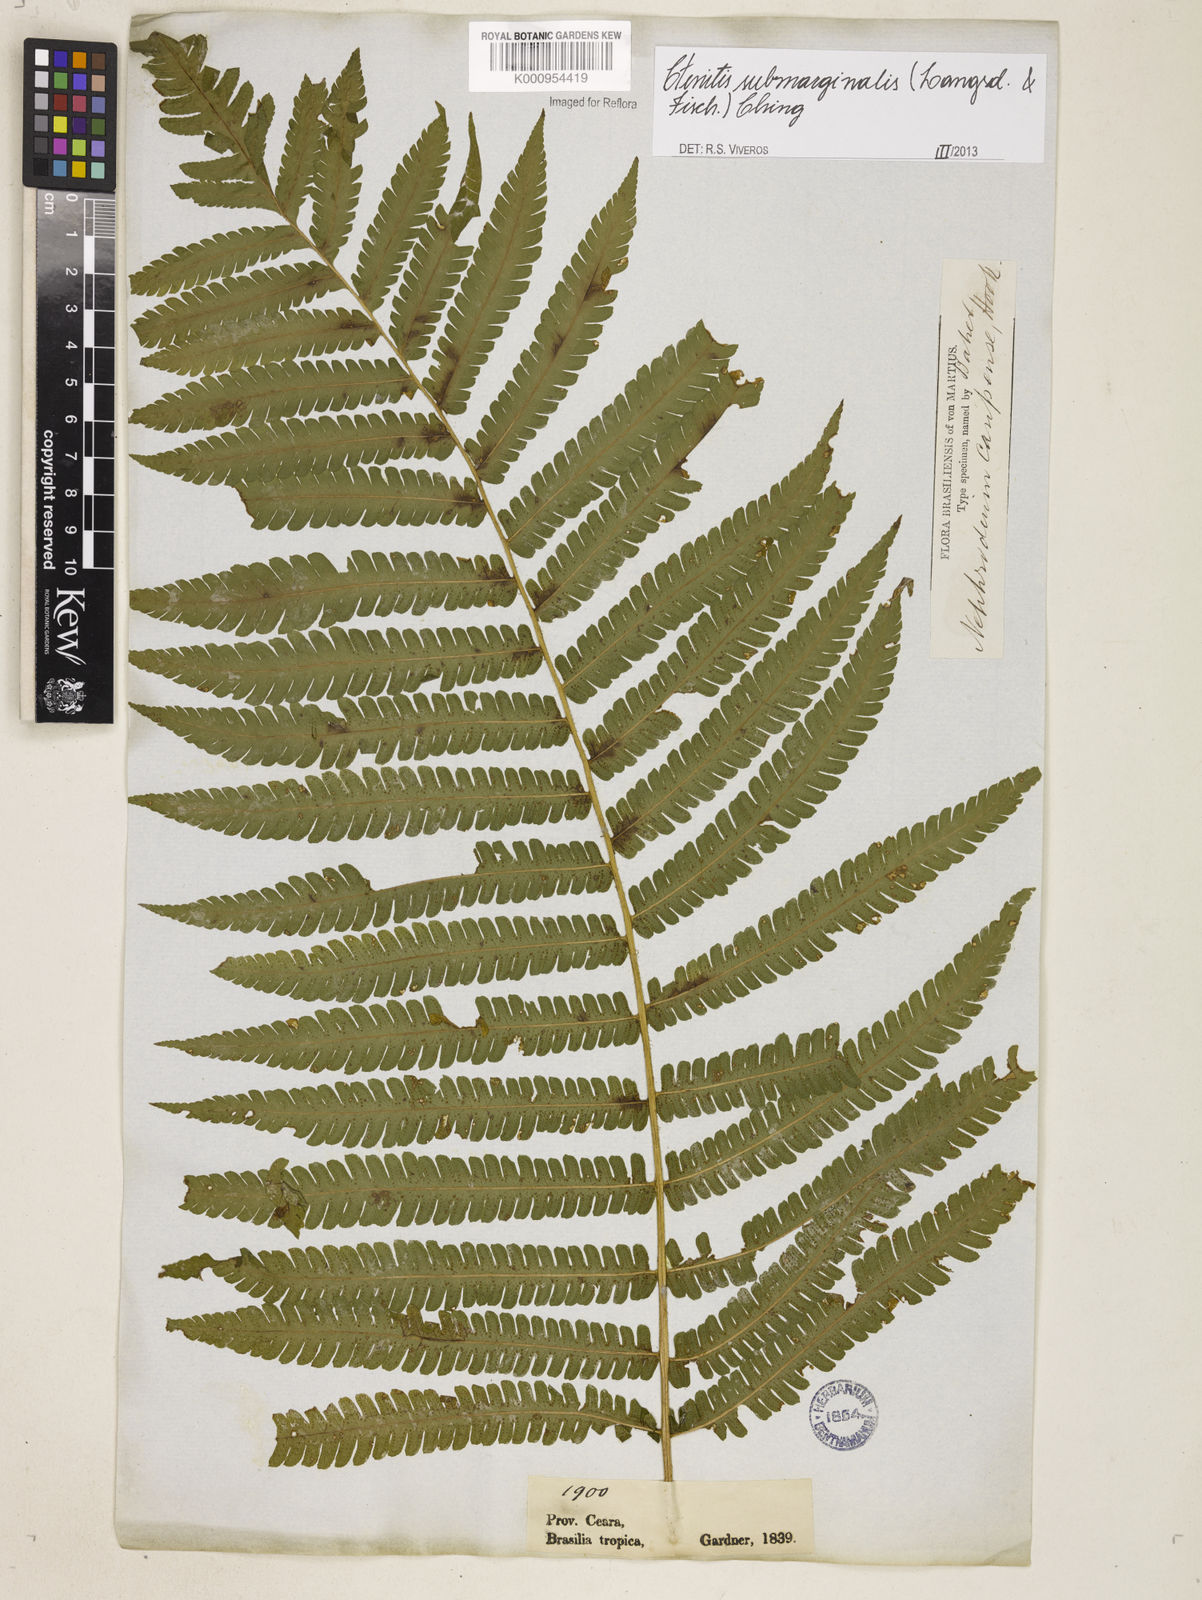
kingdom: Plantae
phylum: Tracheophyta
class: Polypodiopsida
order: Polypodiales
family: Dryopteridaceae
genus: Ctenitis
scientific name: Ctenitis submarginalis
